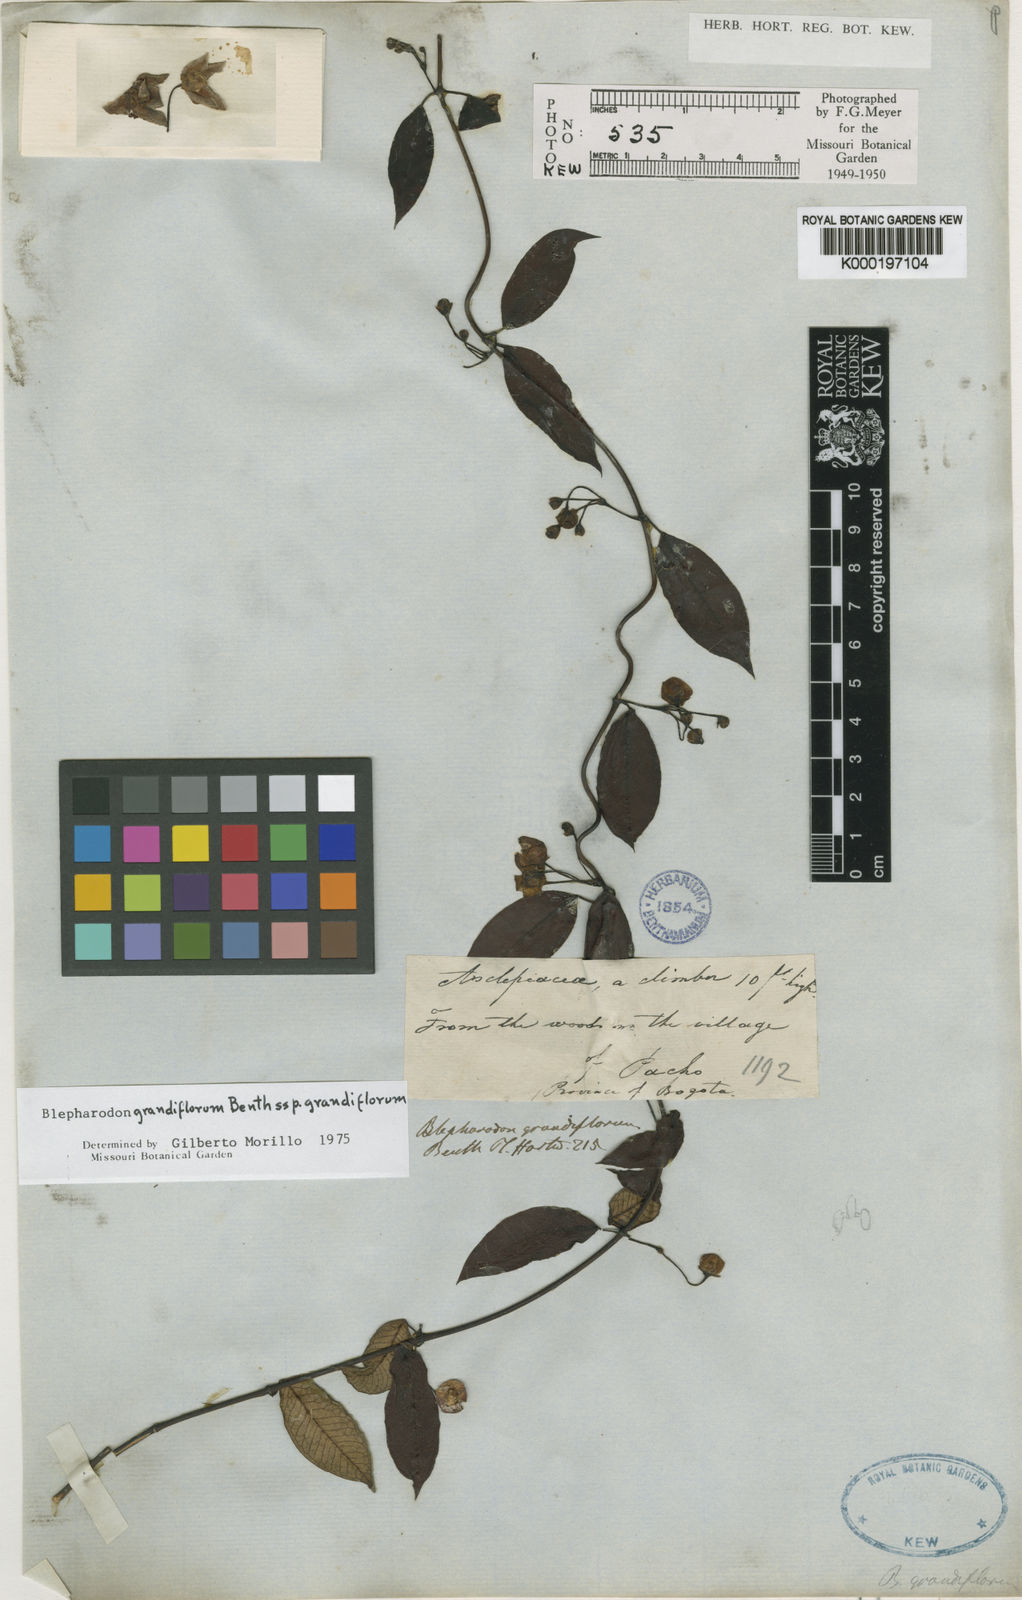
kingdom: Plantae
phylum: Tracheophyta
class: Magnoliopsida
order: Gentianales
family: Apocynaceae
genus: Blepharodon
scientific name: Blepharodon grandiflorum
